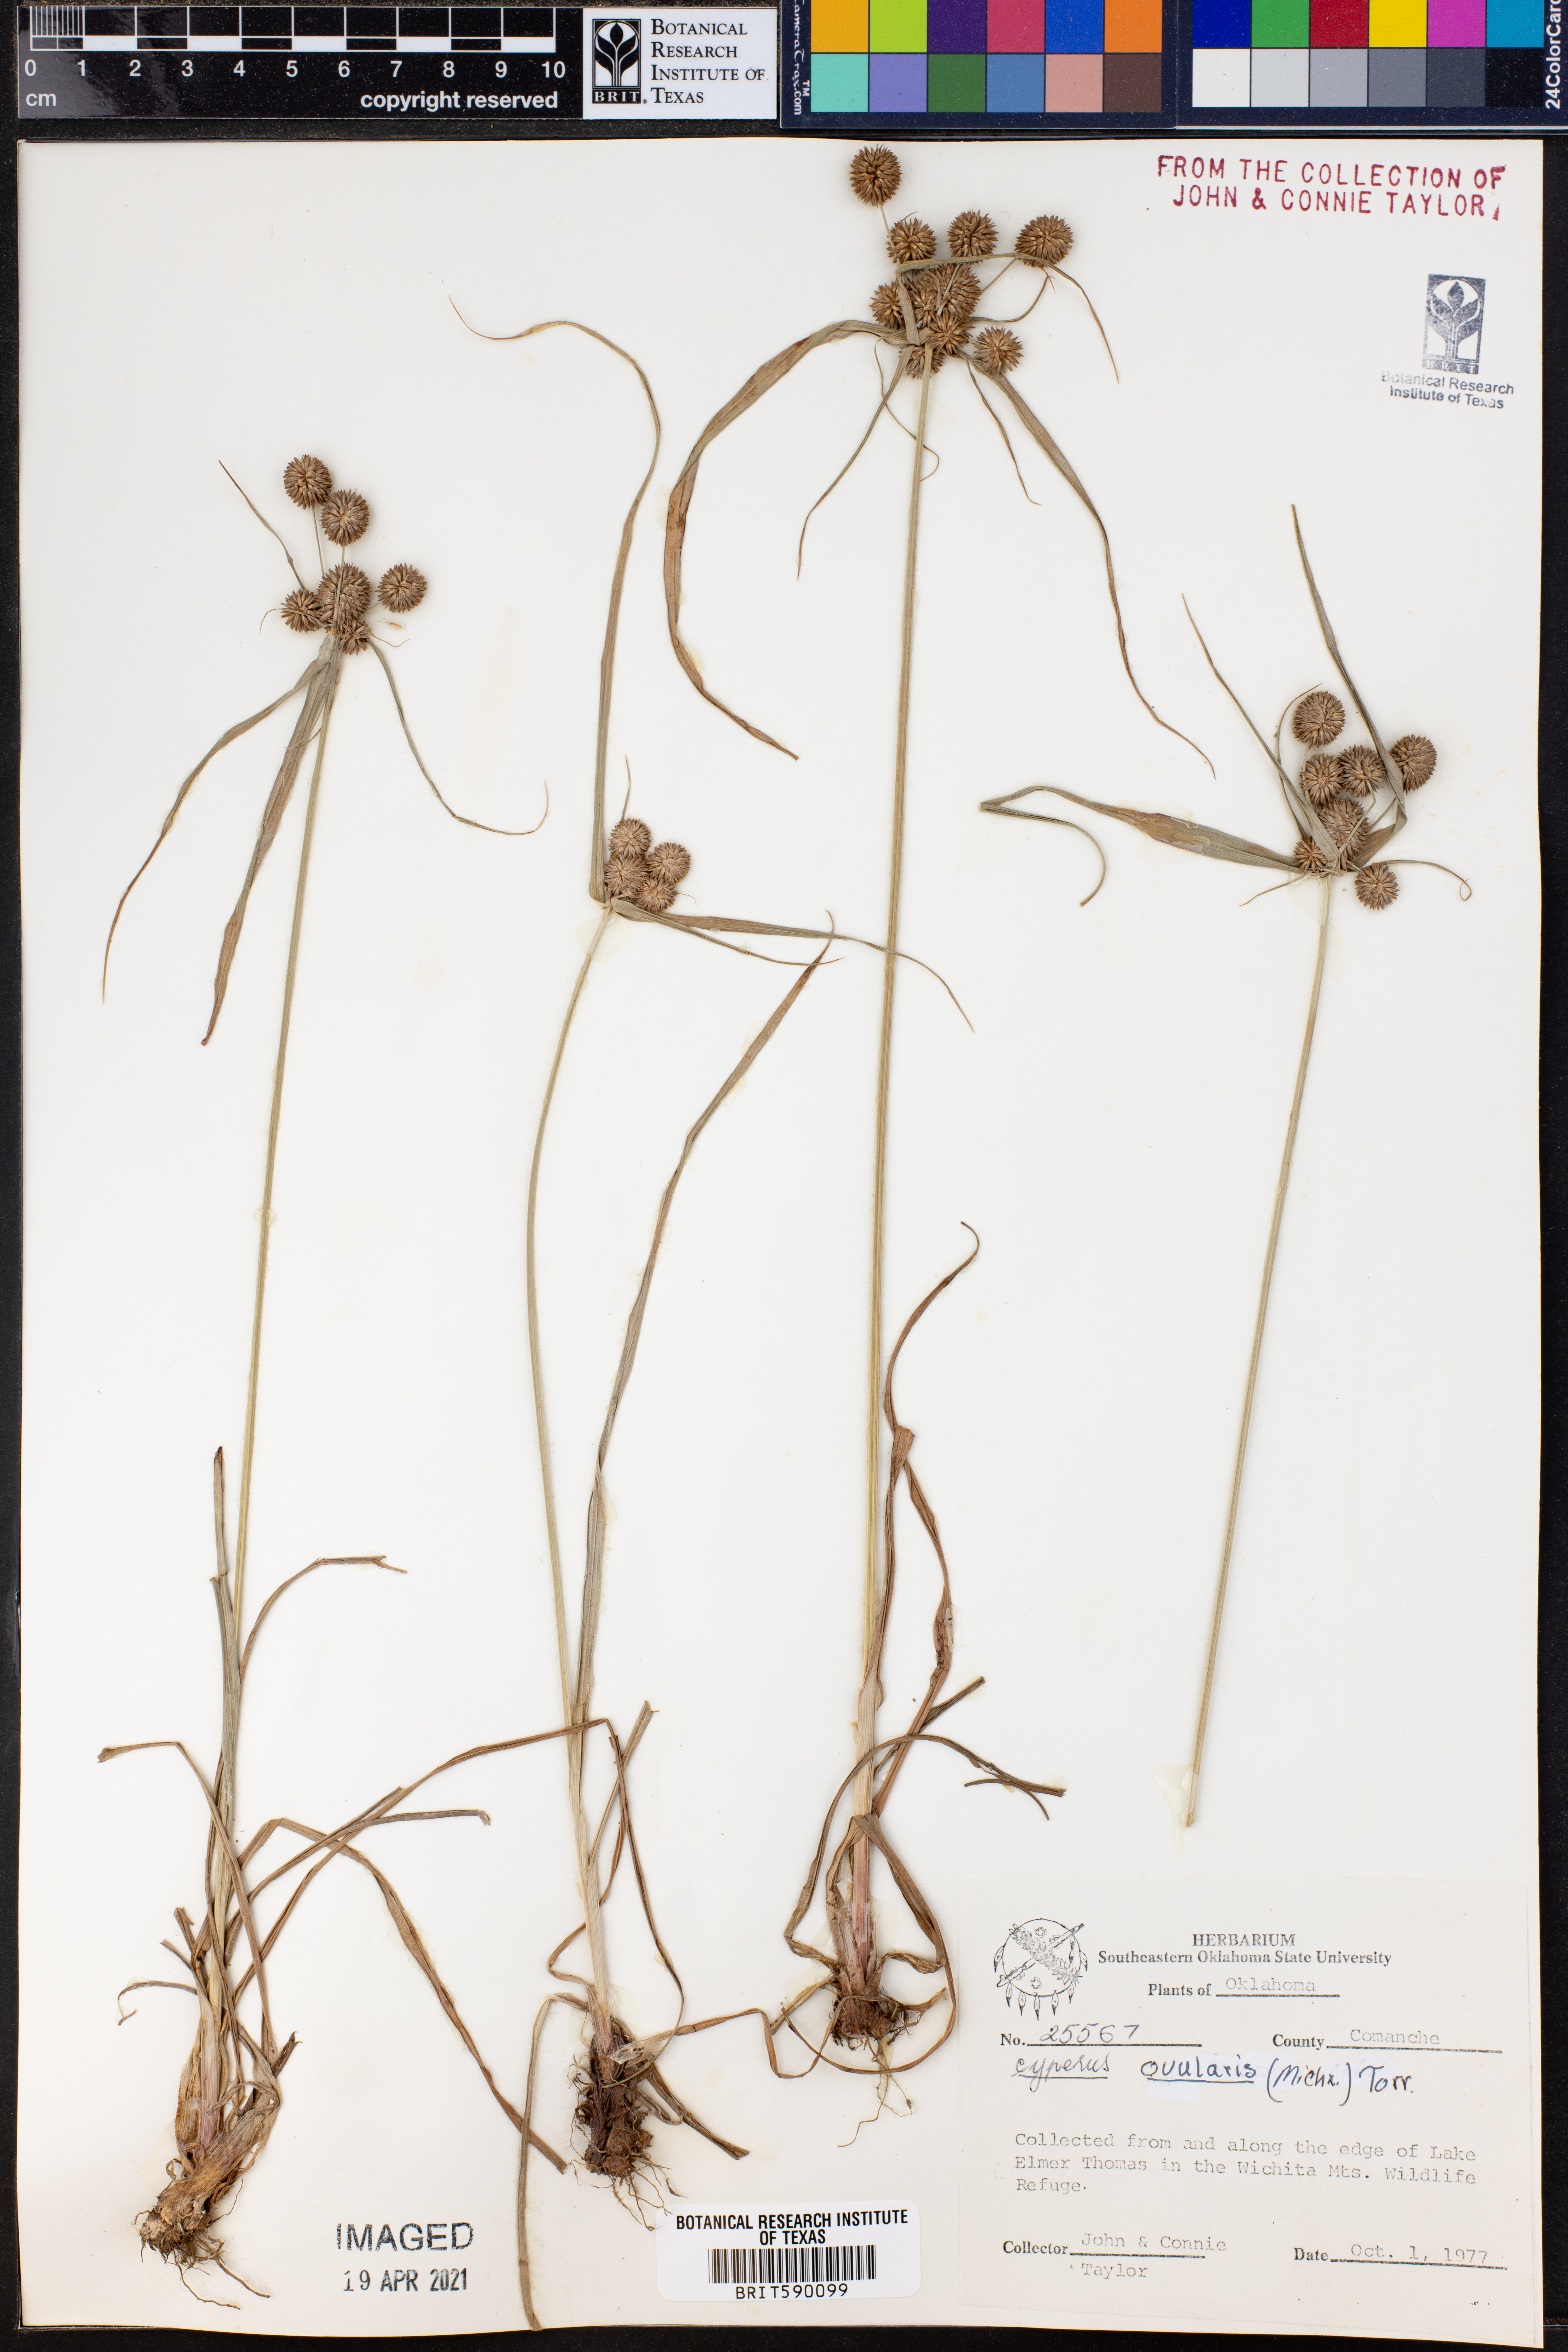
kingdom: Plantae
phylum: Tracheophyta
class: Liliopsida
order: Poales
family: Cyperaceae
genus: Cyperus
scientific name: Cyperus echinatus
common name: Teasel sedge
